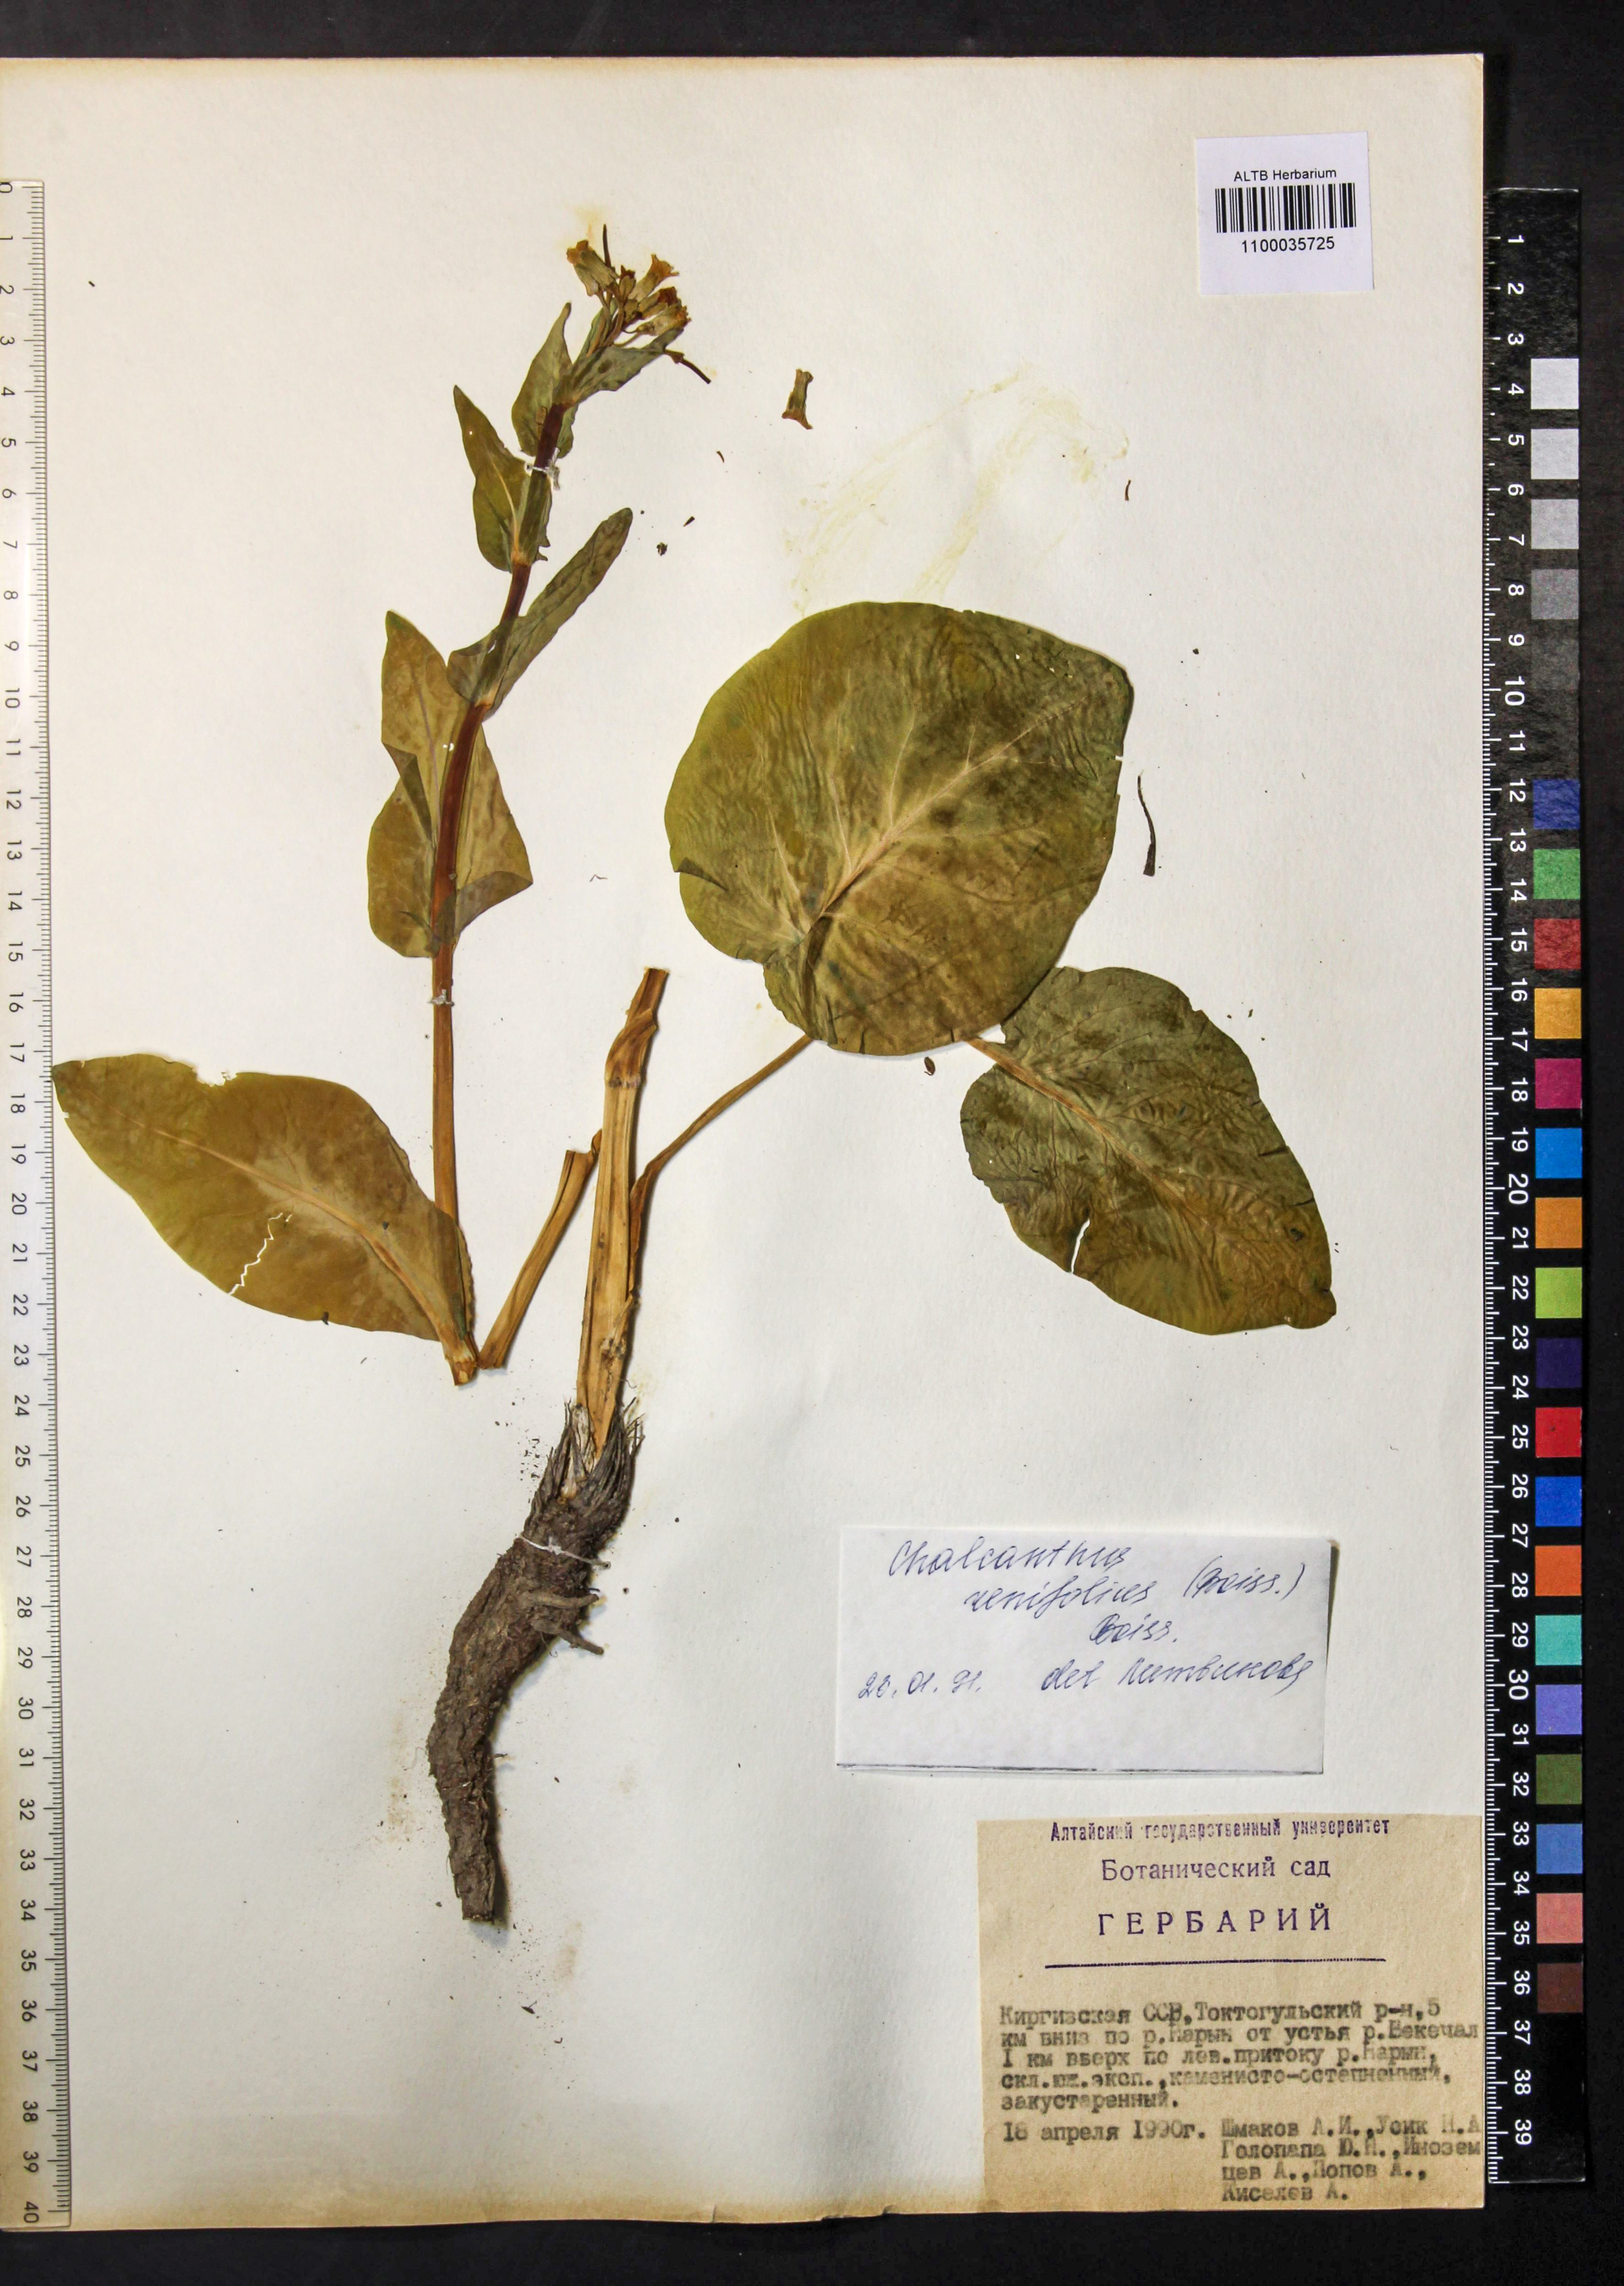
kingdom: Plantae
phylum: Tracheophyta
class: Magnoliopsida
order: Brassicales
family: Brassicaceae
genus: Eutrema
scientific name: Eutrema renifolium
